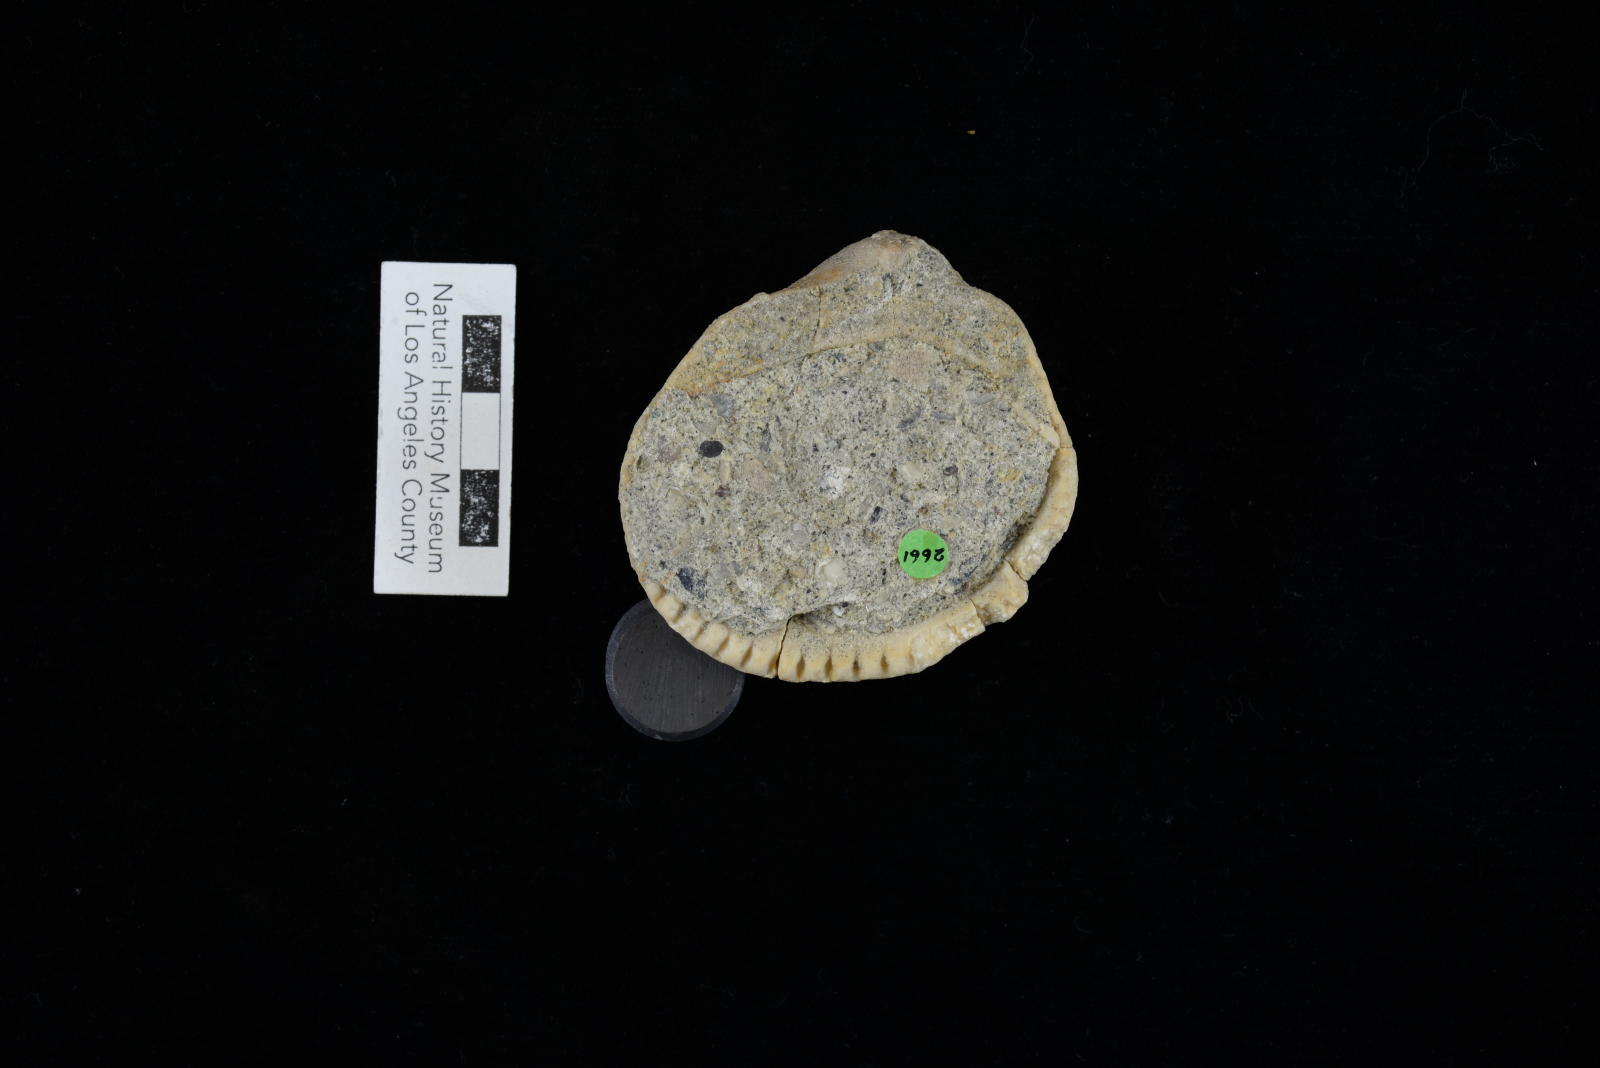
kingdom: Animalia
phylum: Mollusca
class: Bivalvia
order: Arcida
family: Glycymerididae
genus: Glycymerita
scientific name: Glycymerita Glycymeris banosensis
